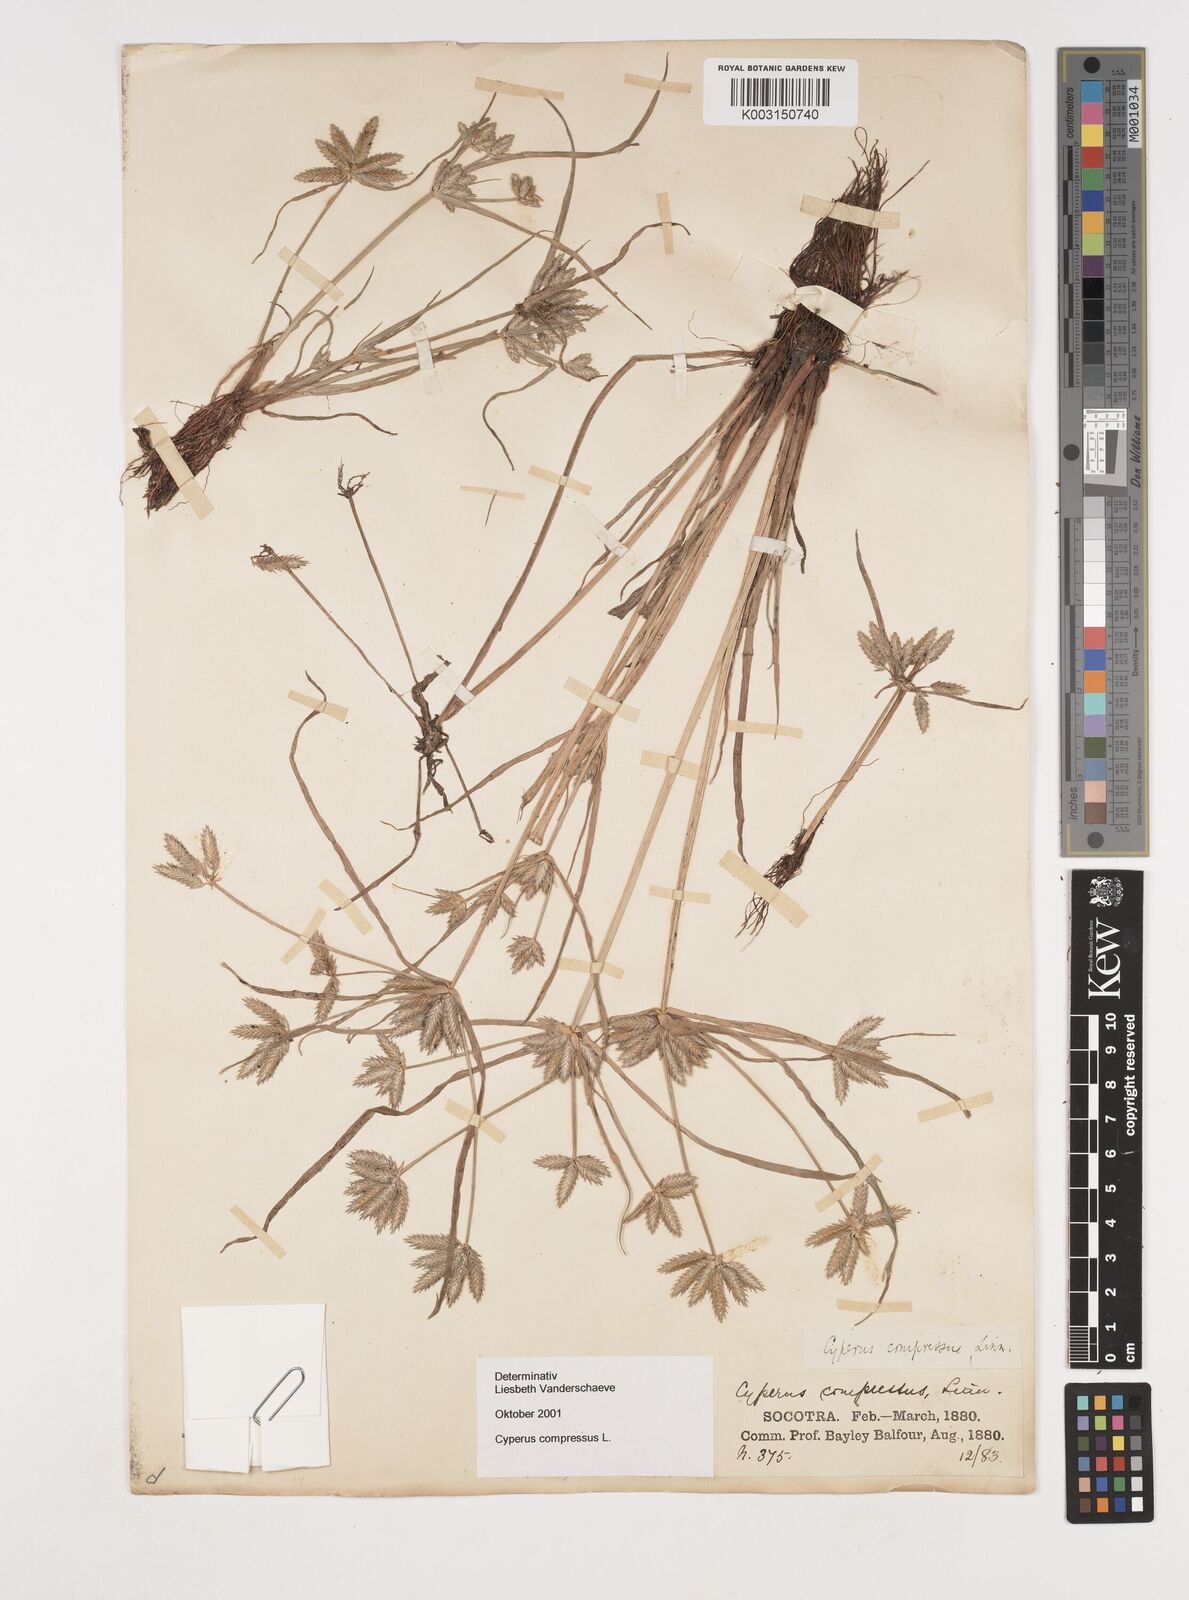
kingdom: Plantae
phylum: Tracheophyta
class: Liliopsida
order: Poales
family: Cyperaceae
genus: Cyperus
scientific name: Cyperus compressus
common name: Poorland flatsedge
